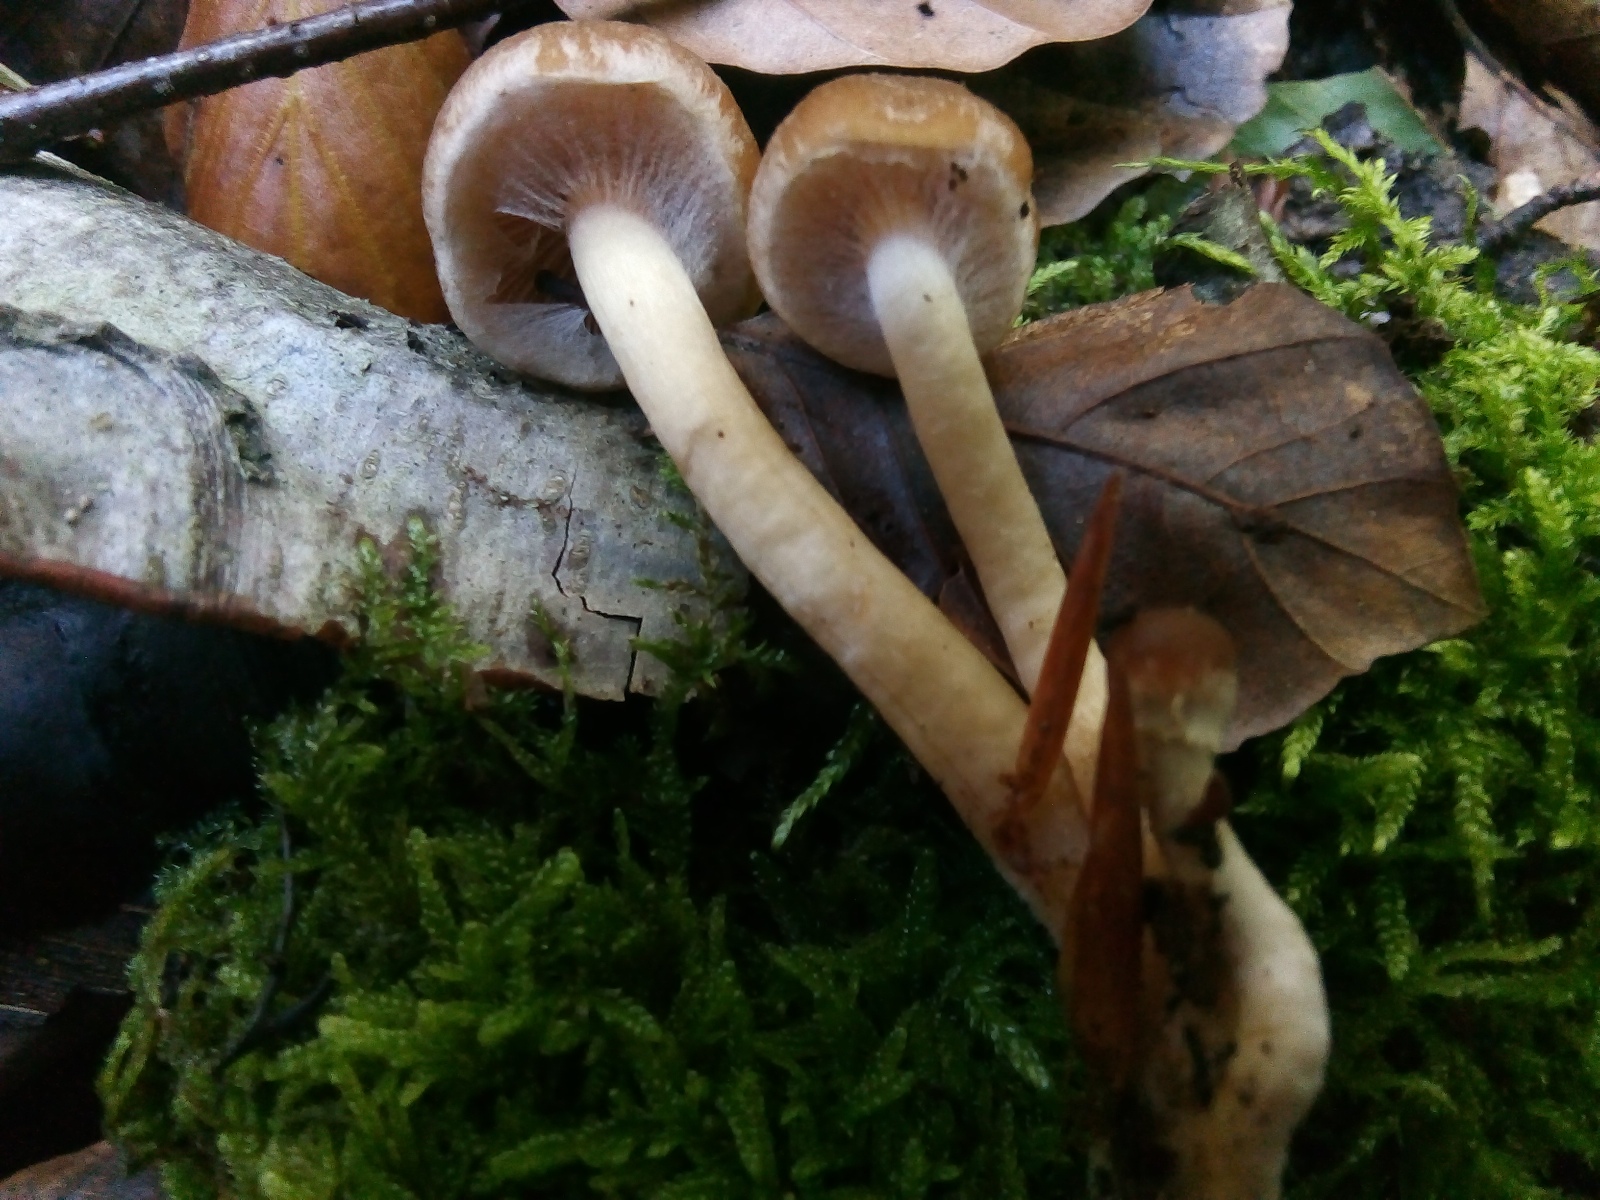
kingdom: Fungi
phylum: Basidiomycota
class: Agaricomycetes
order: Agaricales
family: Psathyrellaceae
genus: Psathyrella
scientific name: Psathyrella piluliformis
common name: lysstokket mørkhat
